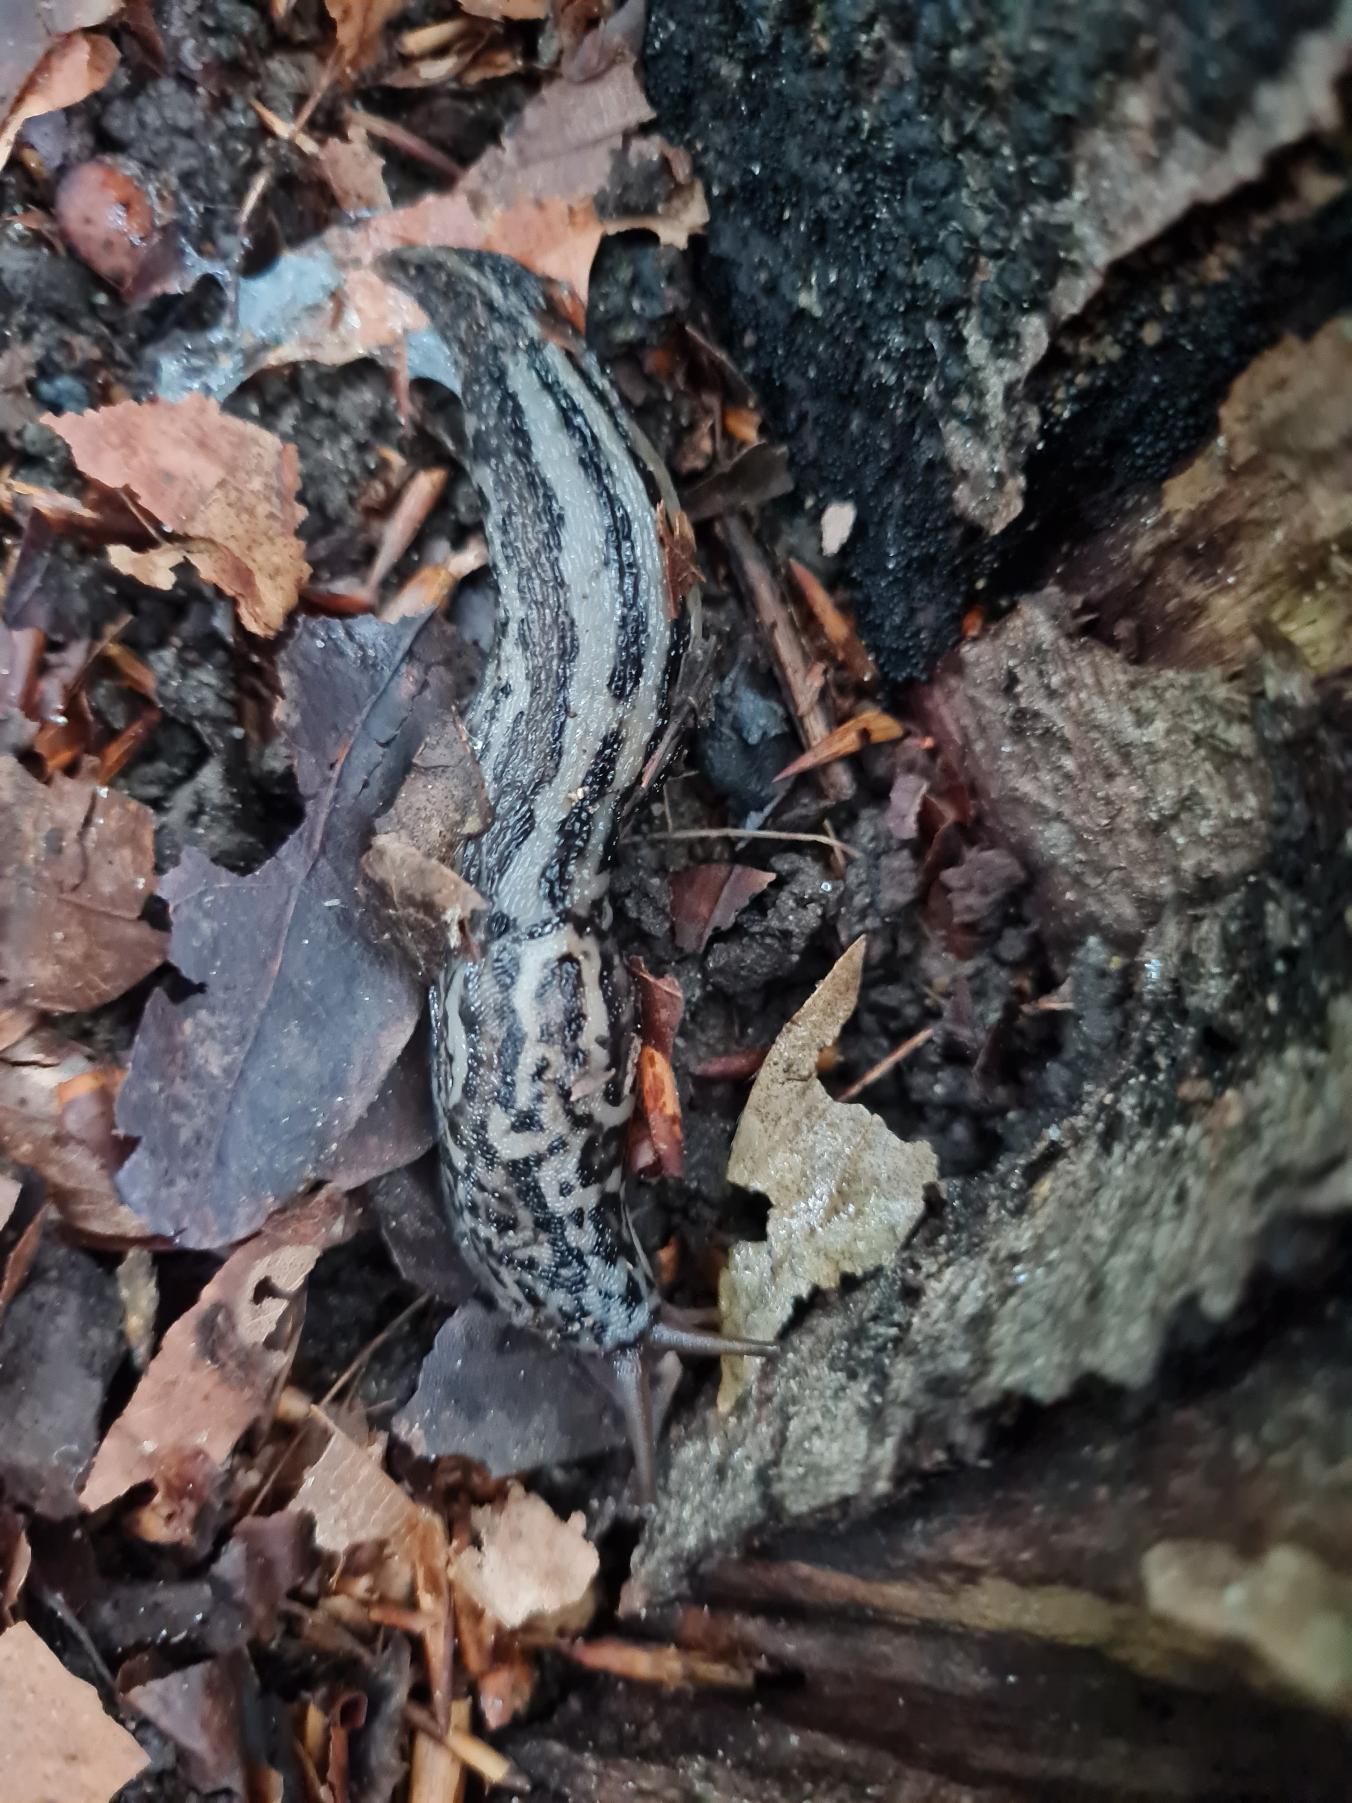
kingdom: Animalia
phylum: Mollusca
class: Gastropoda
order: Stylommatophora
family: Limacidae
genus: Limax
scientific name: Limax maximus
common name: Pantersnegl
